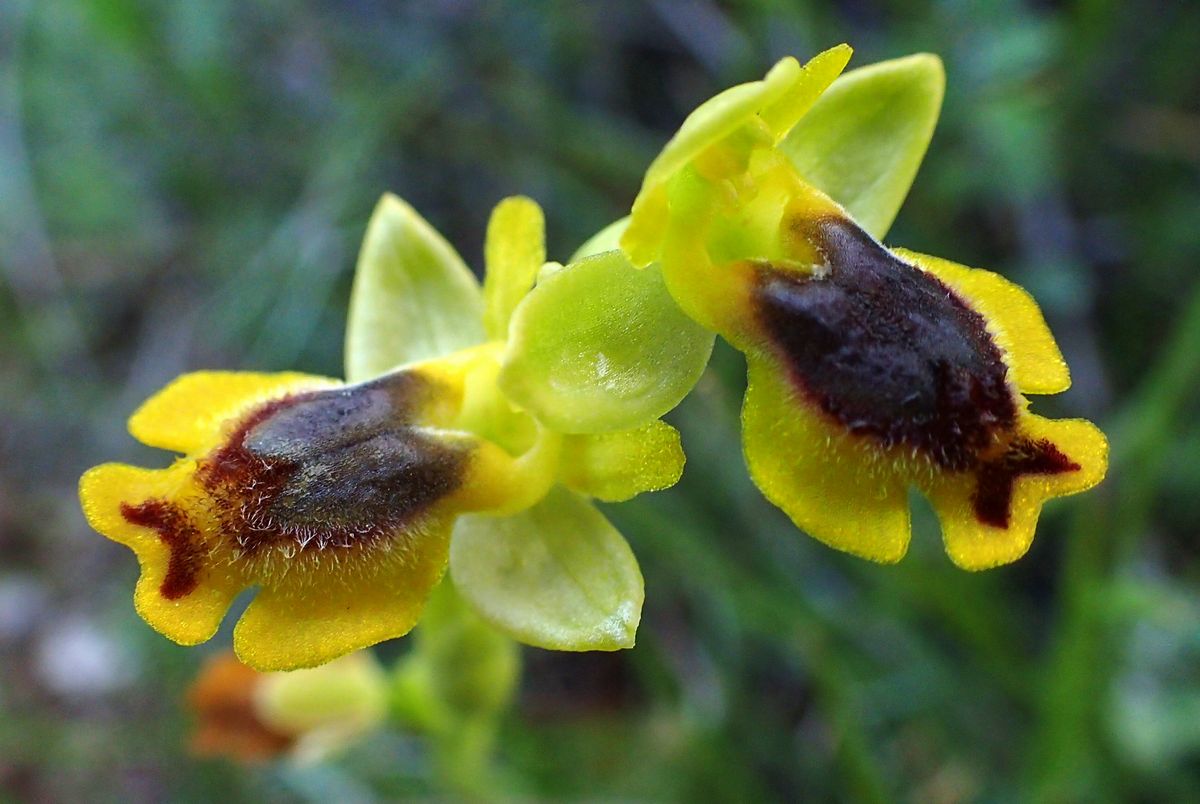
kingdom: Plantae
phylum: Tracheophyta
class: Liliopsida
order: Asparagales
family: Orchidaceae
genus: Ophrys
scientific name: Ophrys lutea
